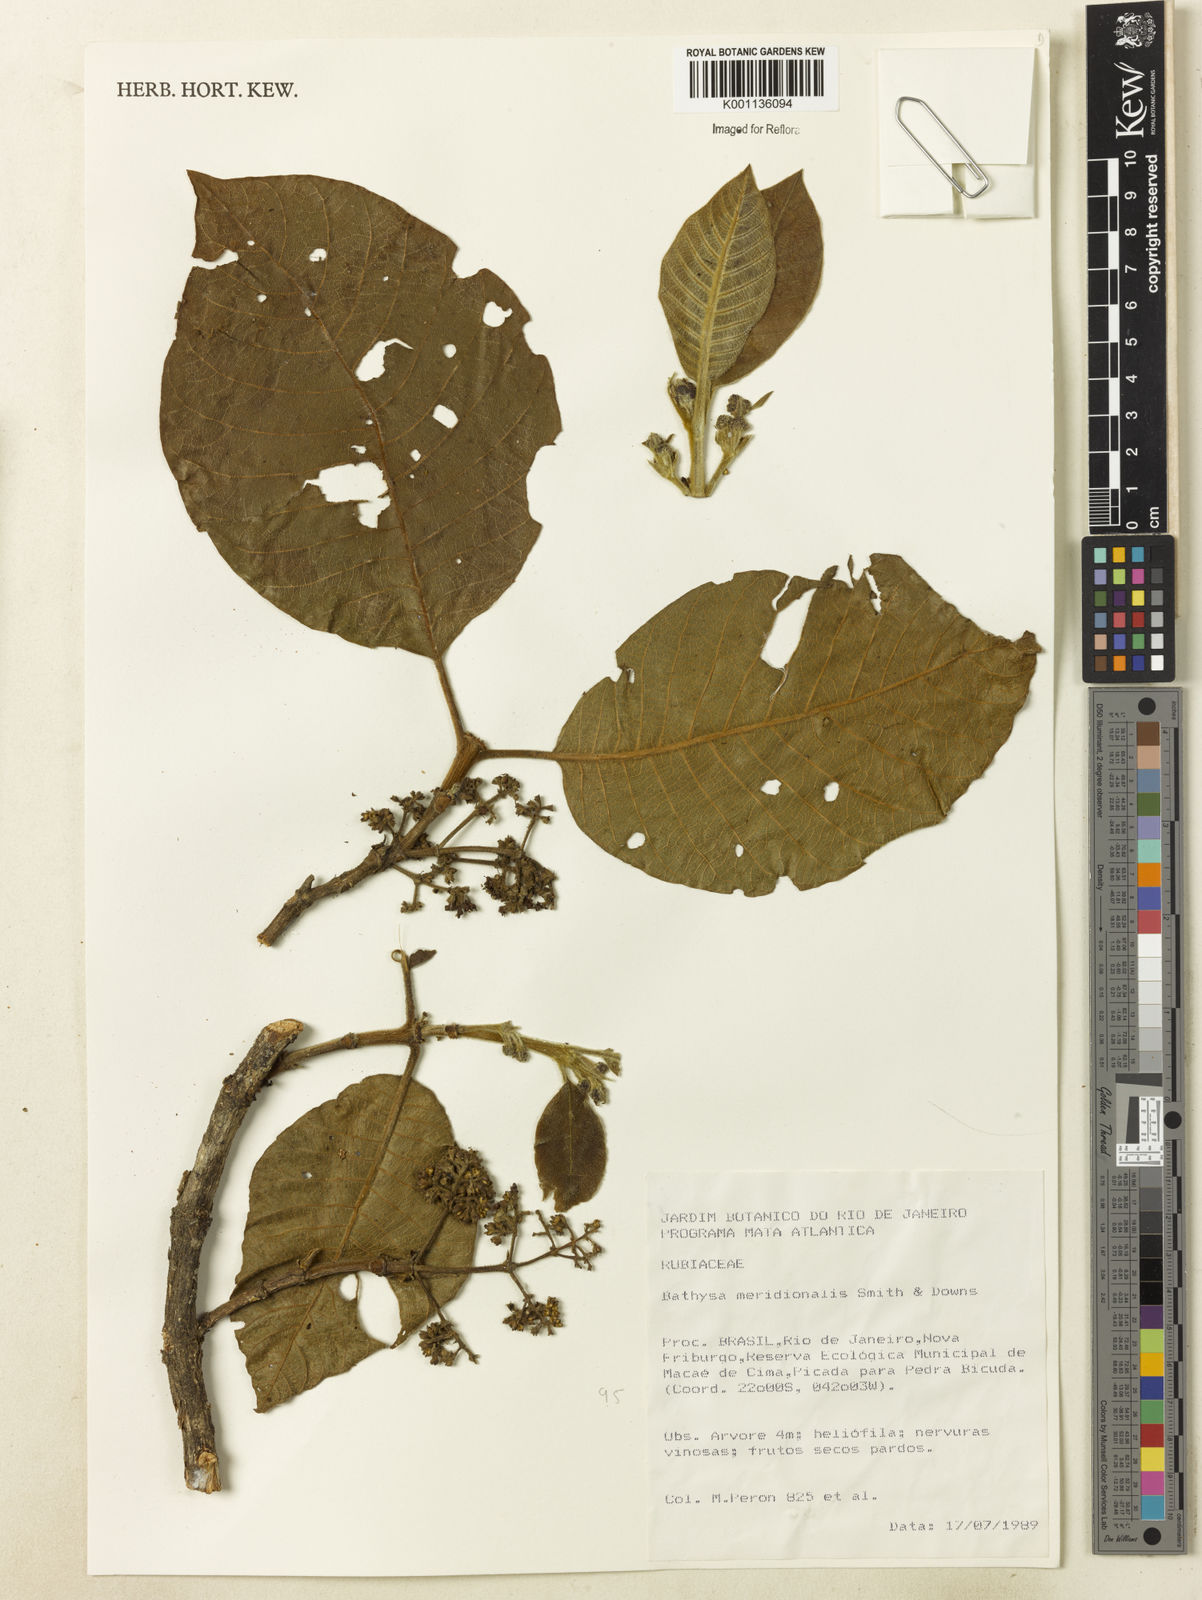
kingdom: Plantae
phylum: Tracheophyta
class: Magnoliopsida
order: Gentianales
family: Rubiaceae
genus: Bathysa
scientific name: Bathysa australis
